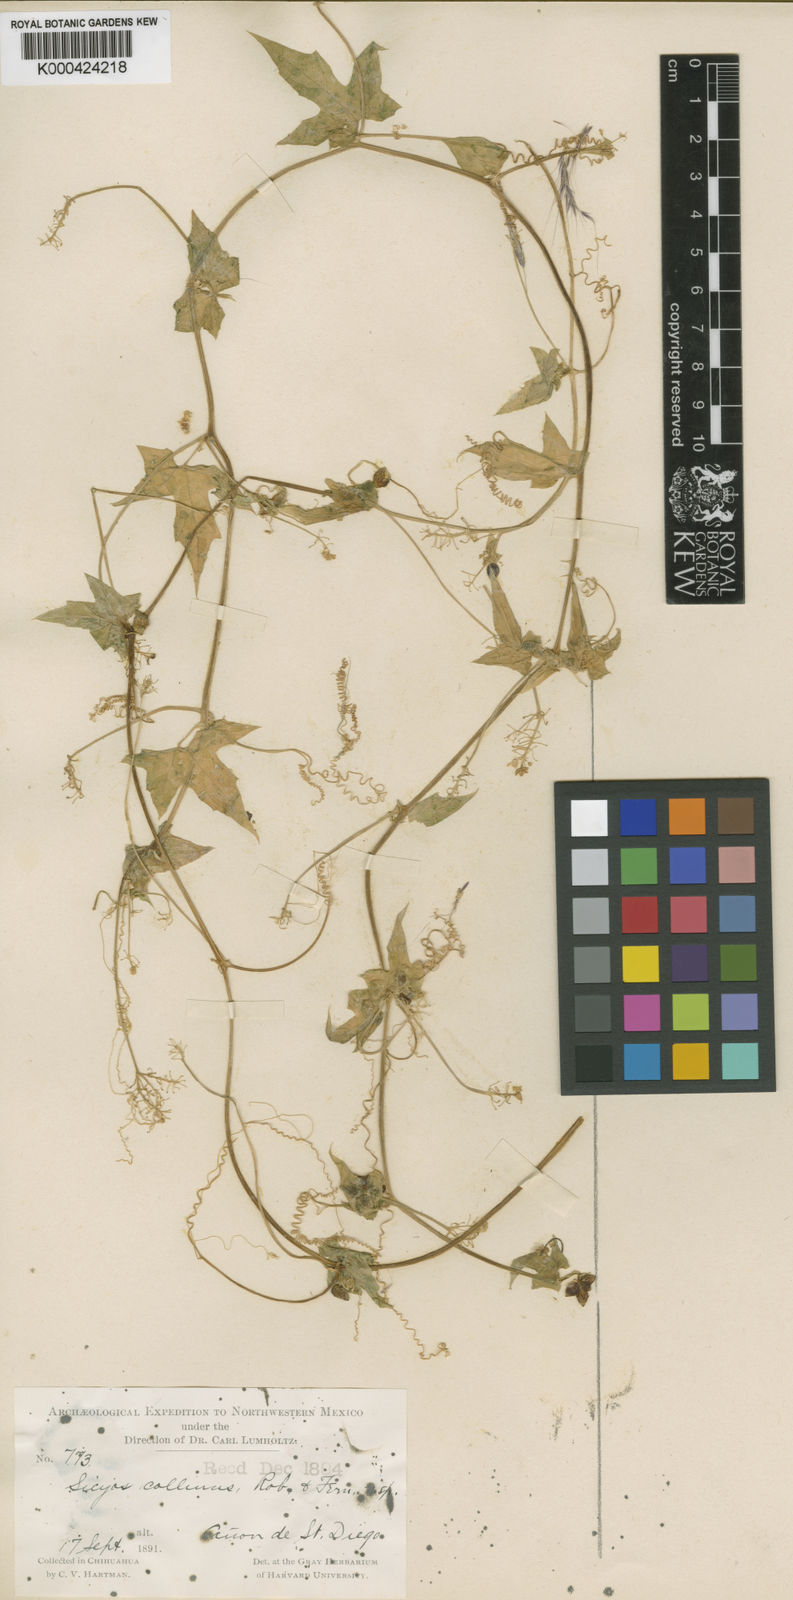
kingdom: Plantae
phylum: Tracheophyta
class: Magnoliopsida
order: Cucurbitales
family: Cucurbitaceae
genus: Sicyos
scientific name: Sicyos collinus
